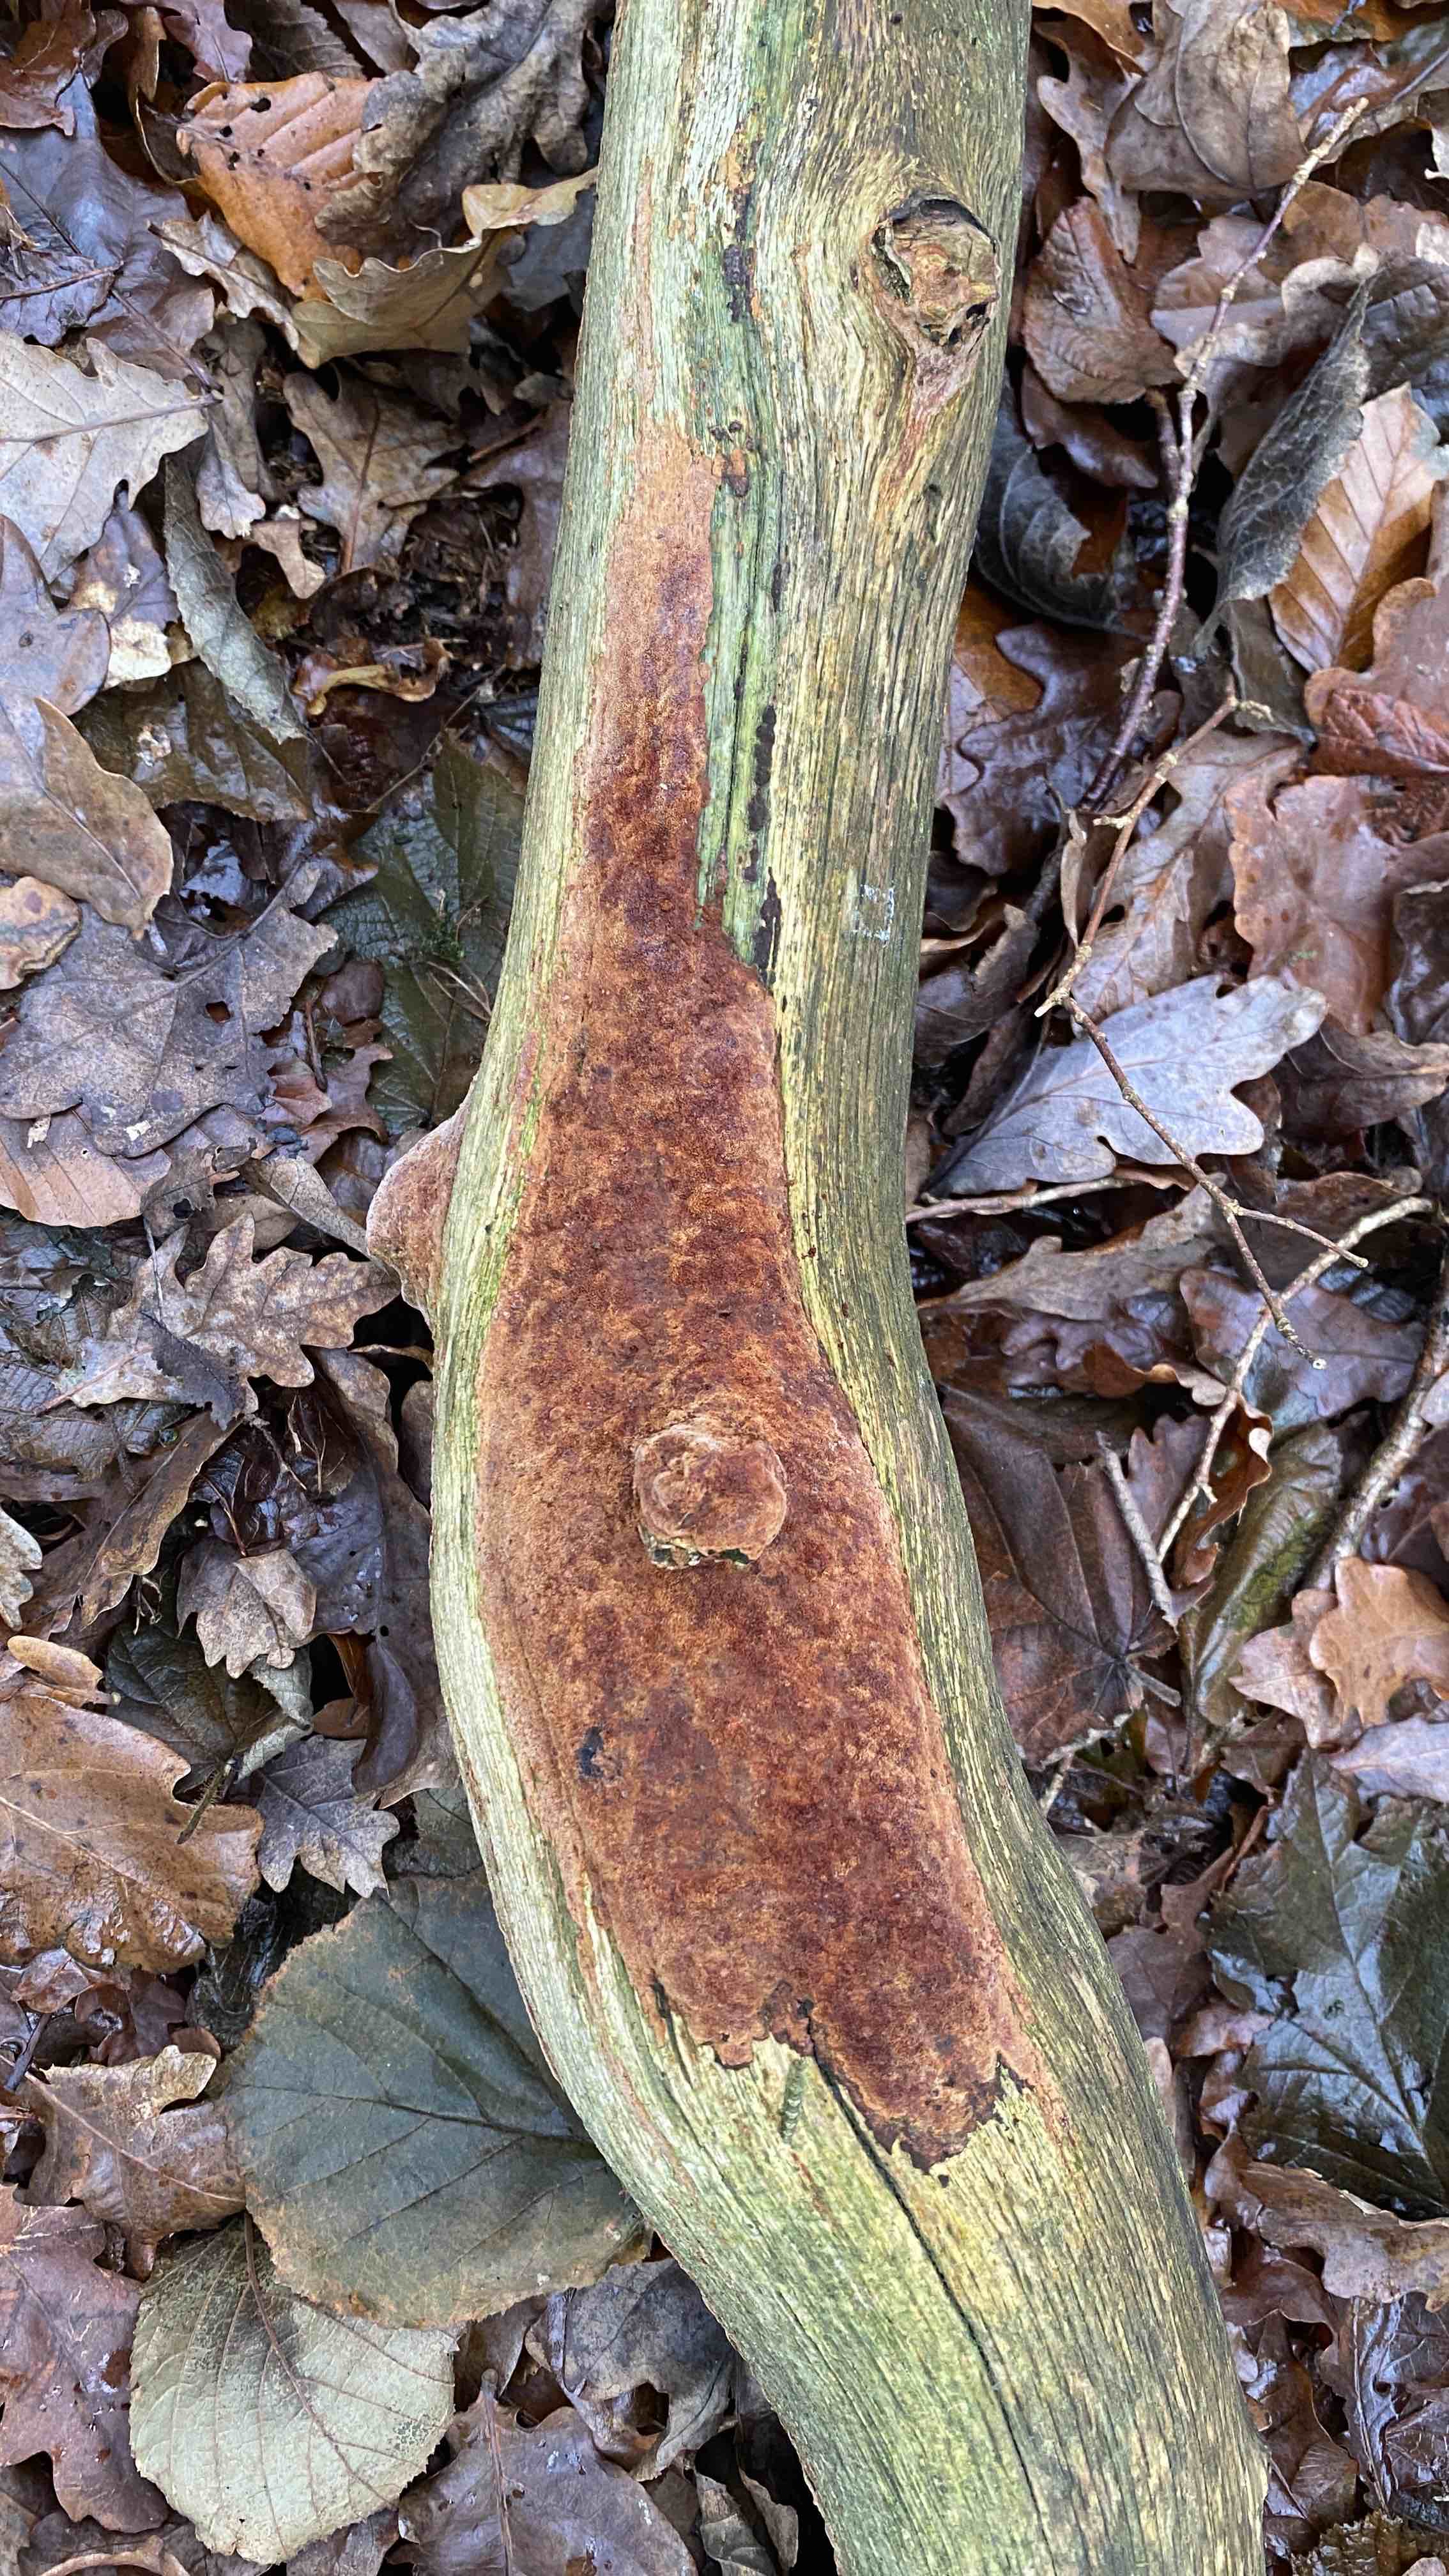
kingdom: Fungi
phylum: Basidiomycota
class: Agaricomycetes
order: Hymenochaetales
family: Hymenochaetaceae
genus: Fuscoporia
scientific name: Fuscoporia
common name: Ildporesvamp
